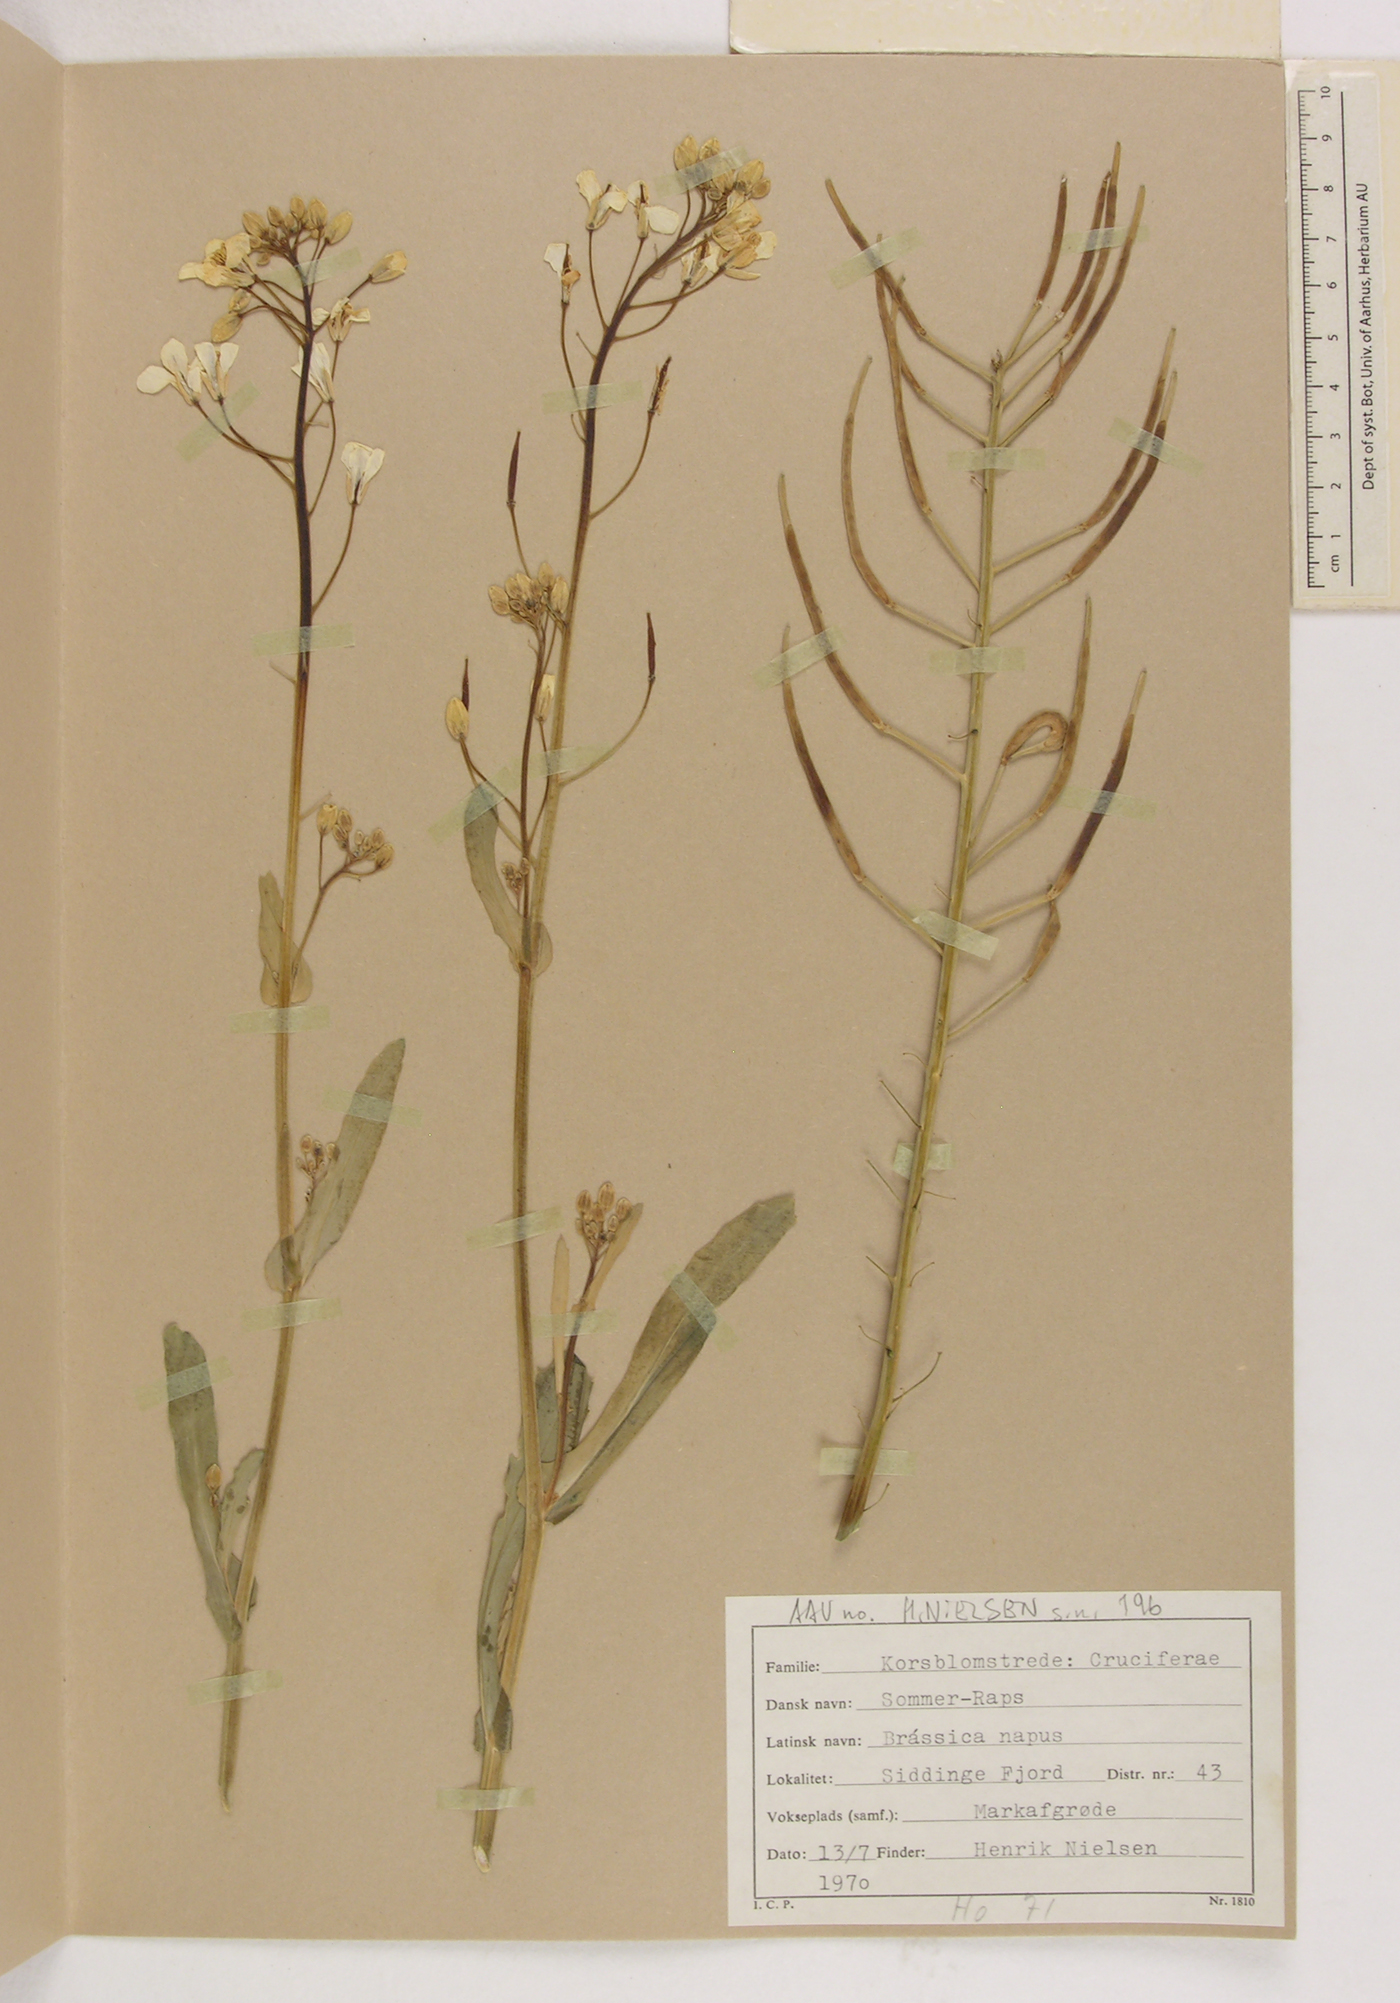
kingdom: Plantae
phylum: Tracheophyta
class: Magnoliopsida
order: Brassicales
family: Brassicaceae
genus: Brassica
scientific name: Brassica napus
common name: Rape
